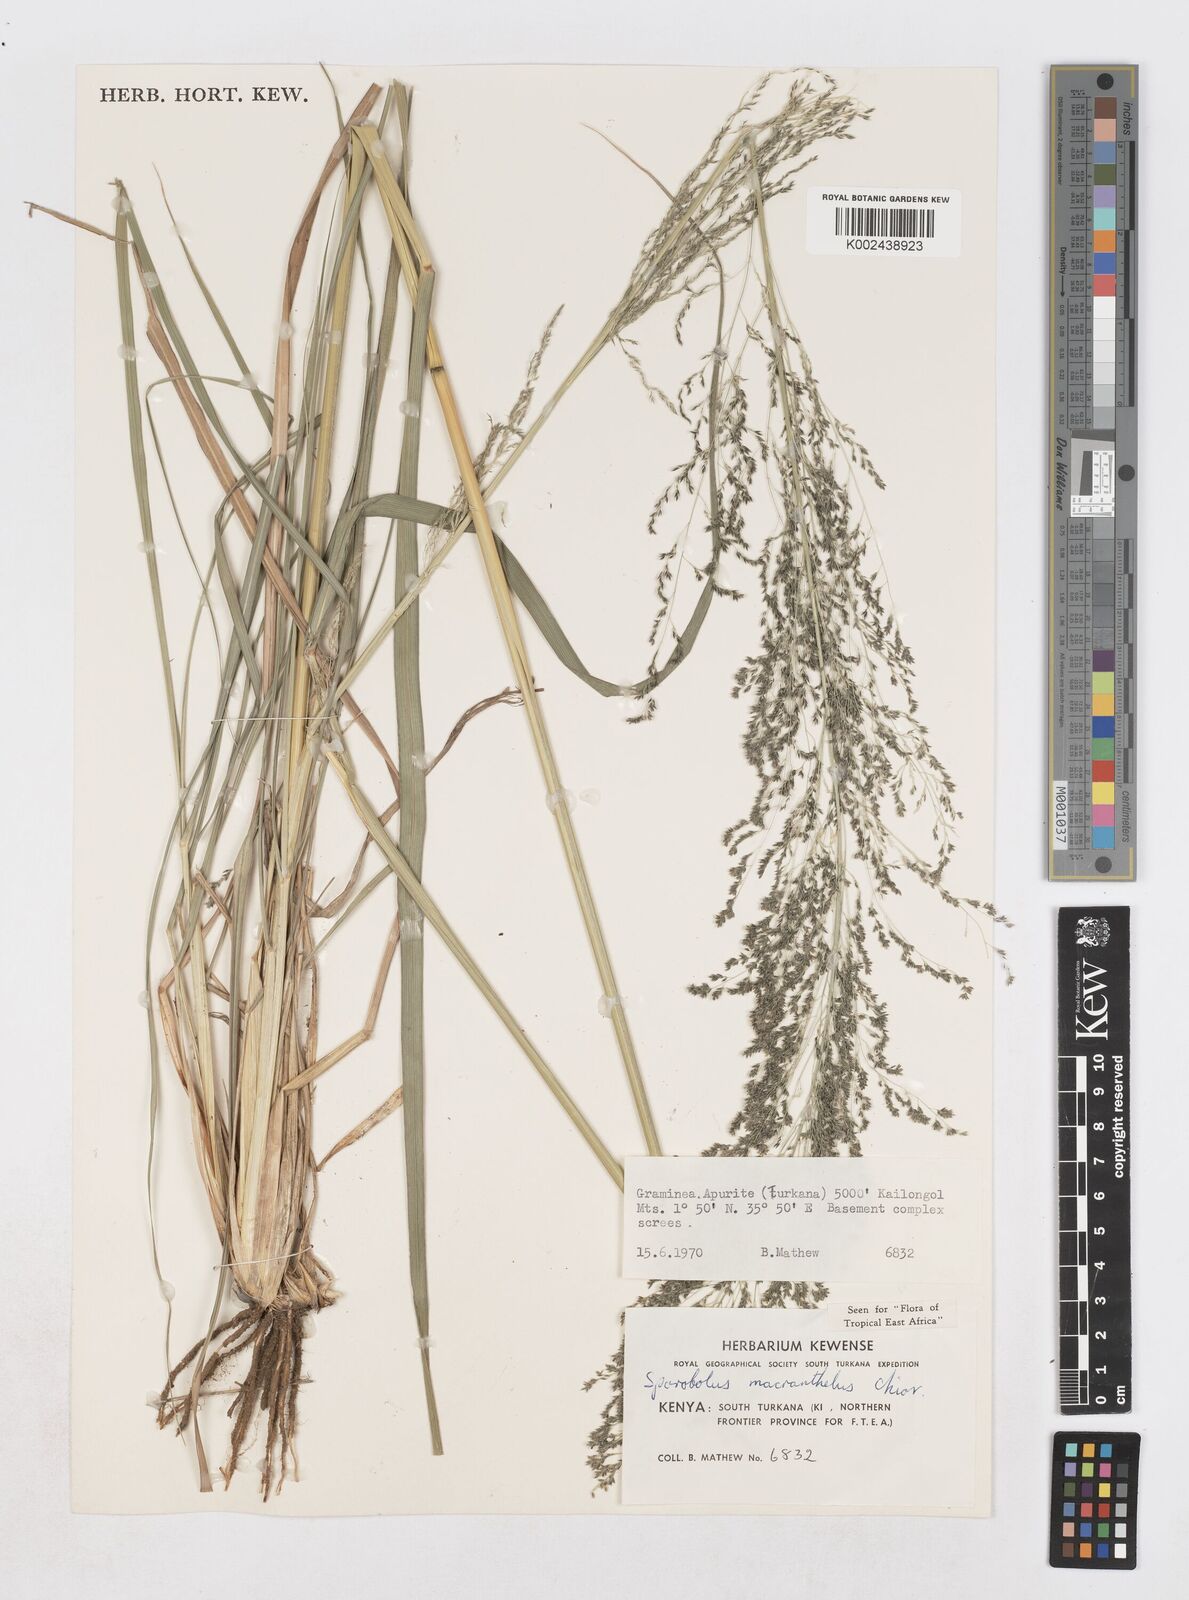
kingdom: Plantae
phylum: Tracheophyta
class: Liliopsida
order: Poales
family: Poaceae
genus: Sporobolus
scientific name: Sporobolus macranthelus
